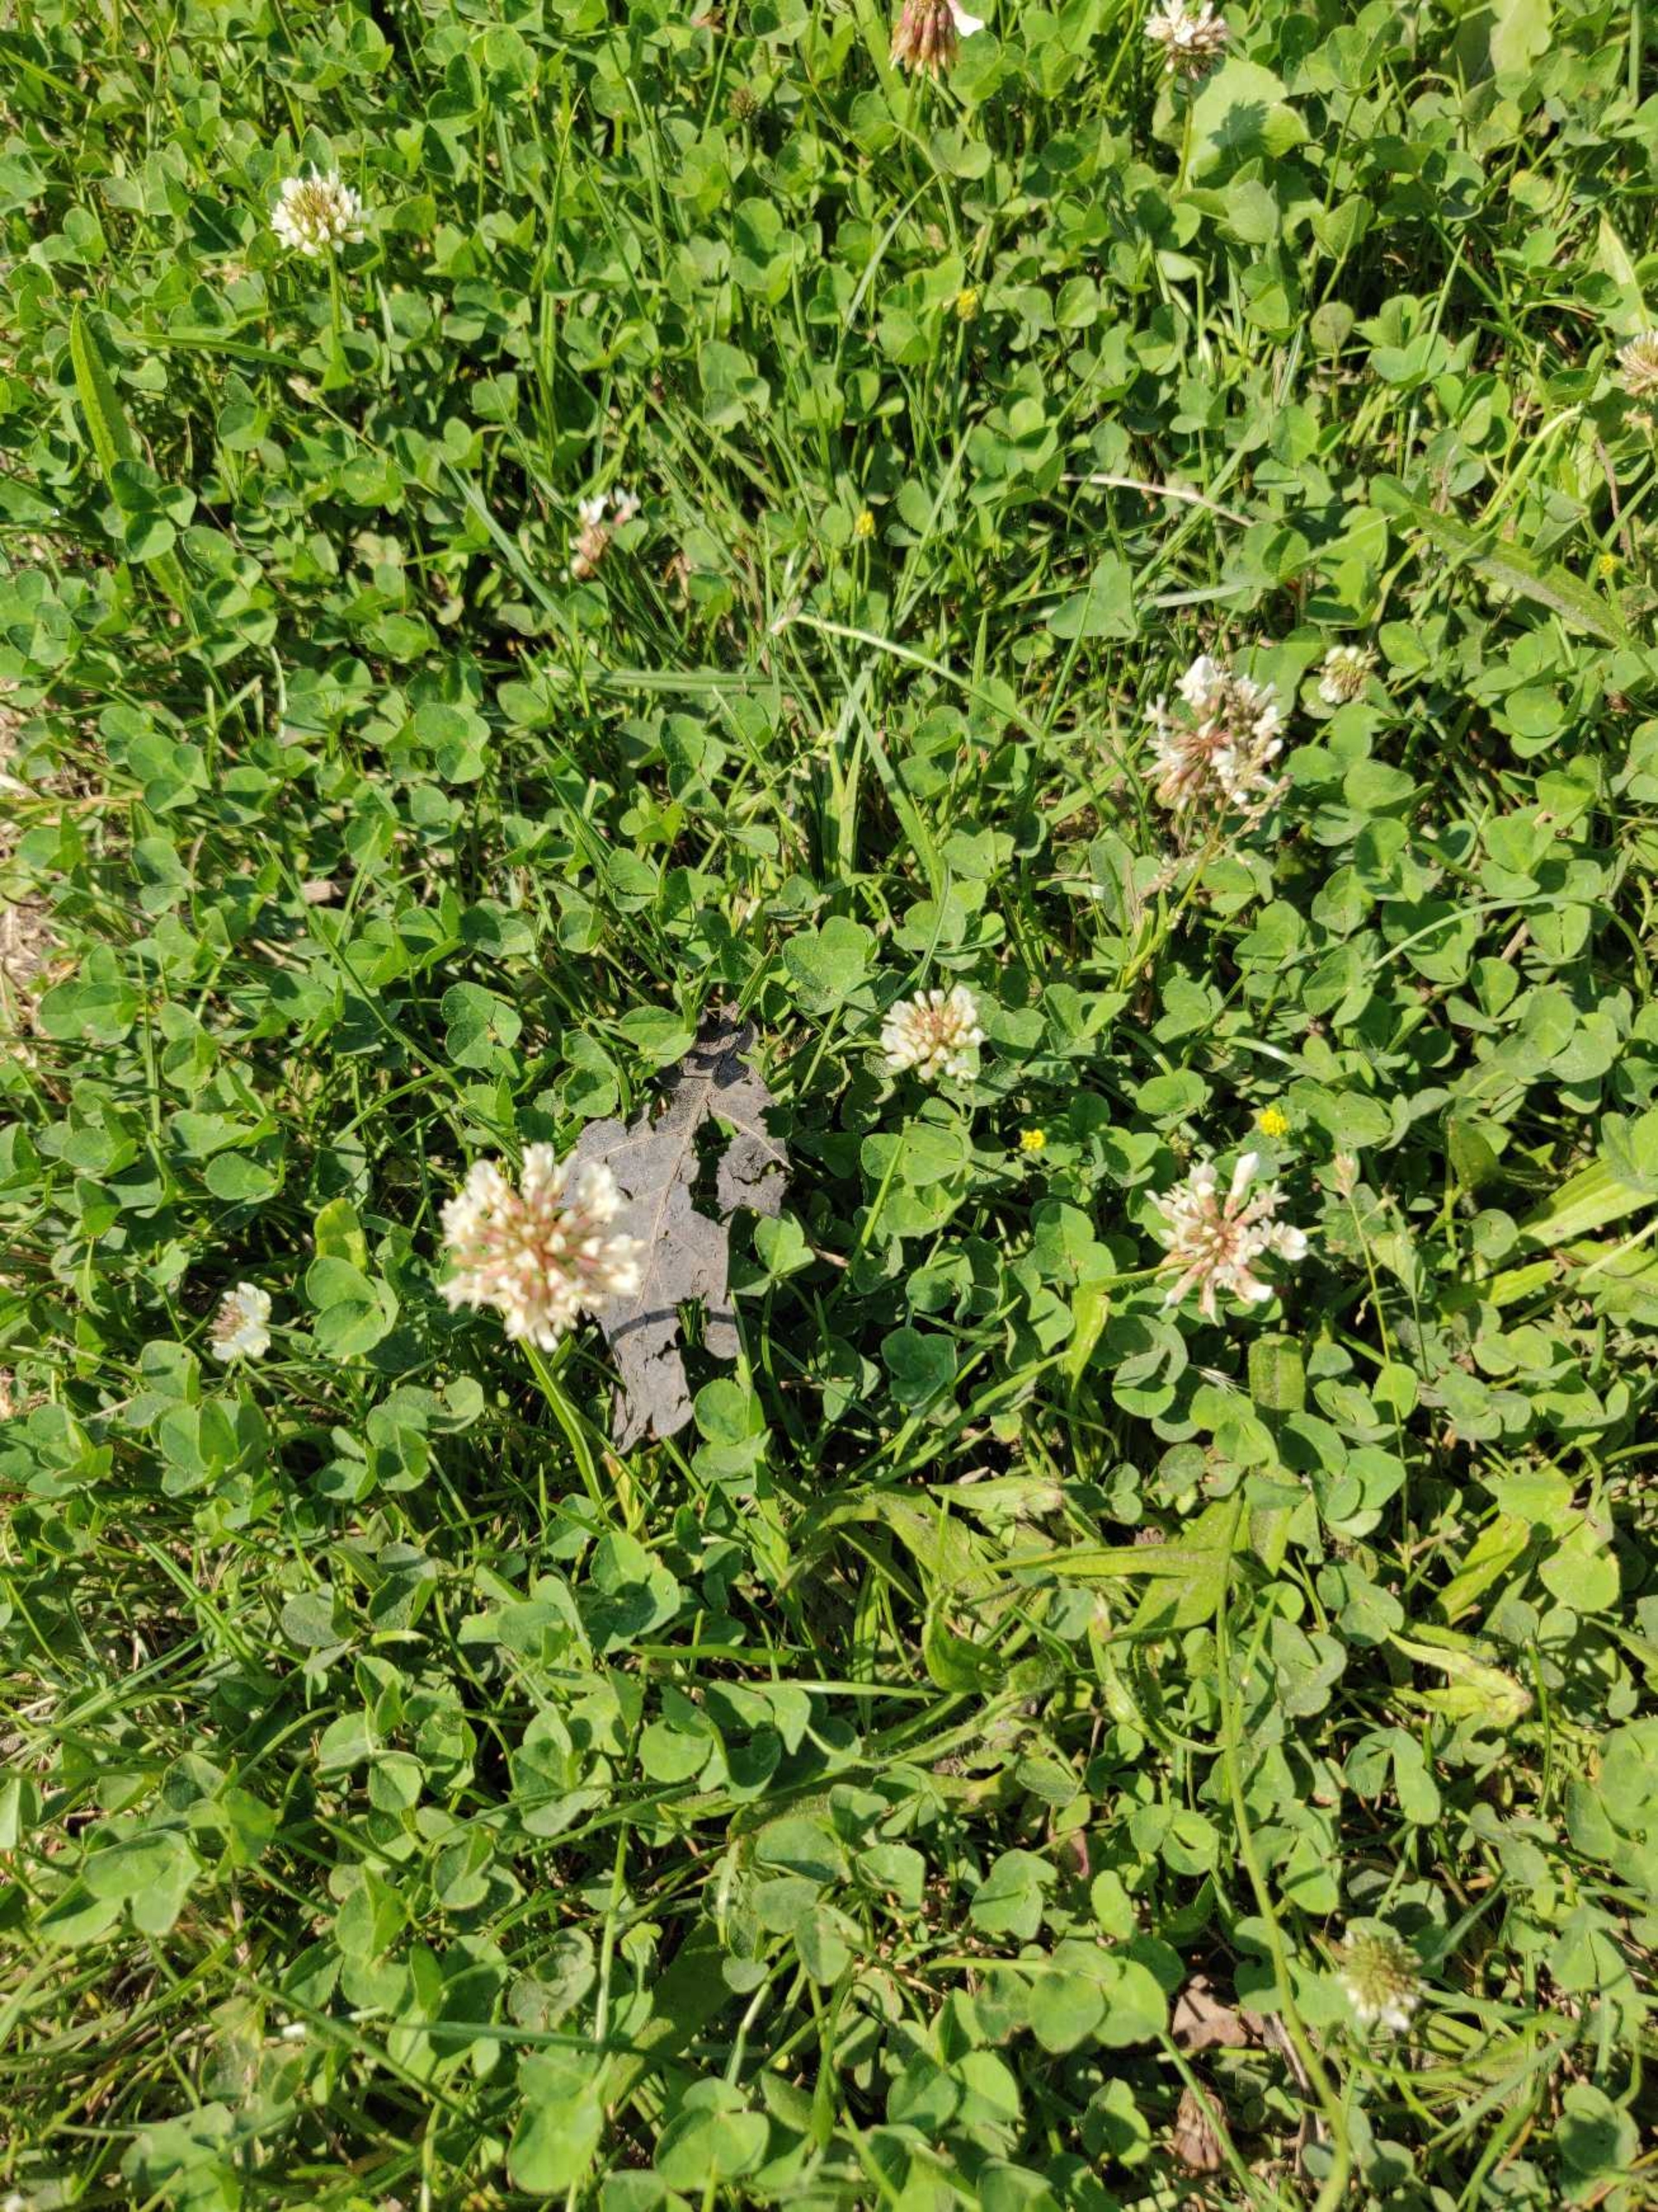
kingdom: Plantae
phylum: Tracheophyta
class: Magnoliopsida
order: Fabales
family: Fabaceae
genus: Trifolium
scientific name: Trifolium repens
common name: Hvid-kløver
